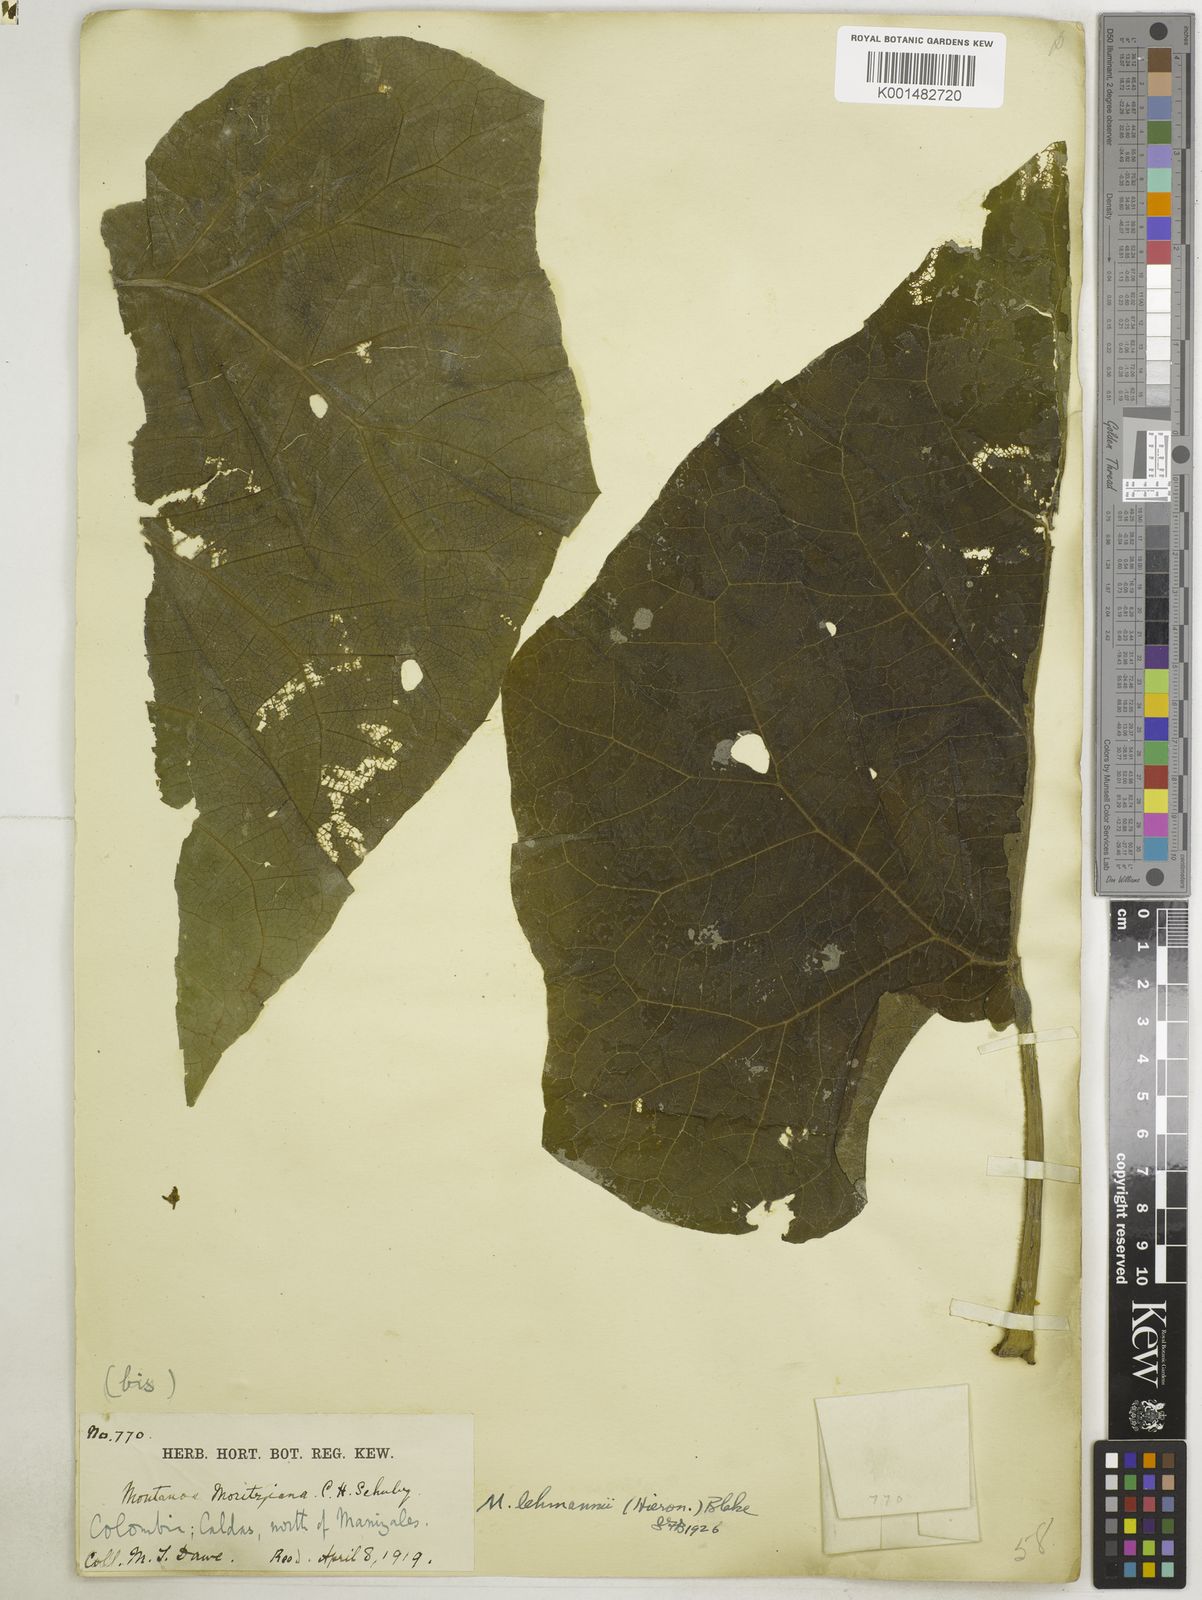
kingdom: Plantae
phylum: Tracheophyta
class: Magnoliopsida
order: Asterales
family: Asteraceae
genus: Montanoa
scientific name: Montanoa quadrangularis
